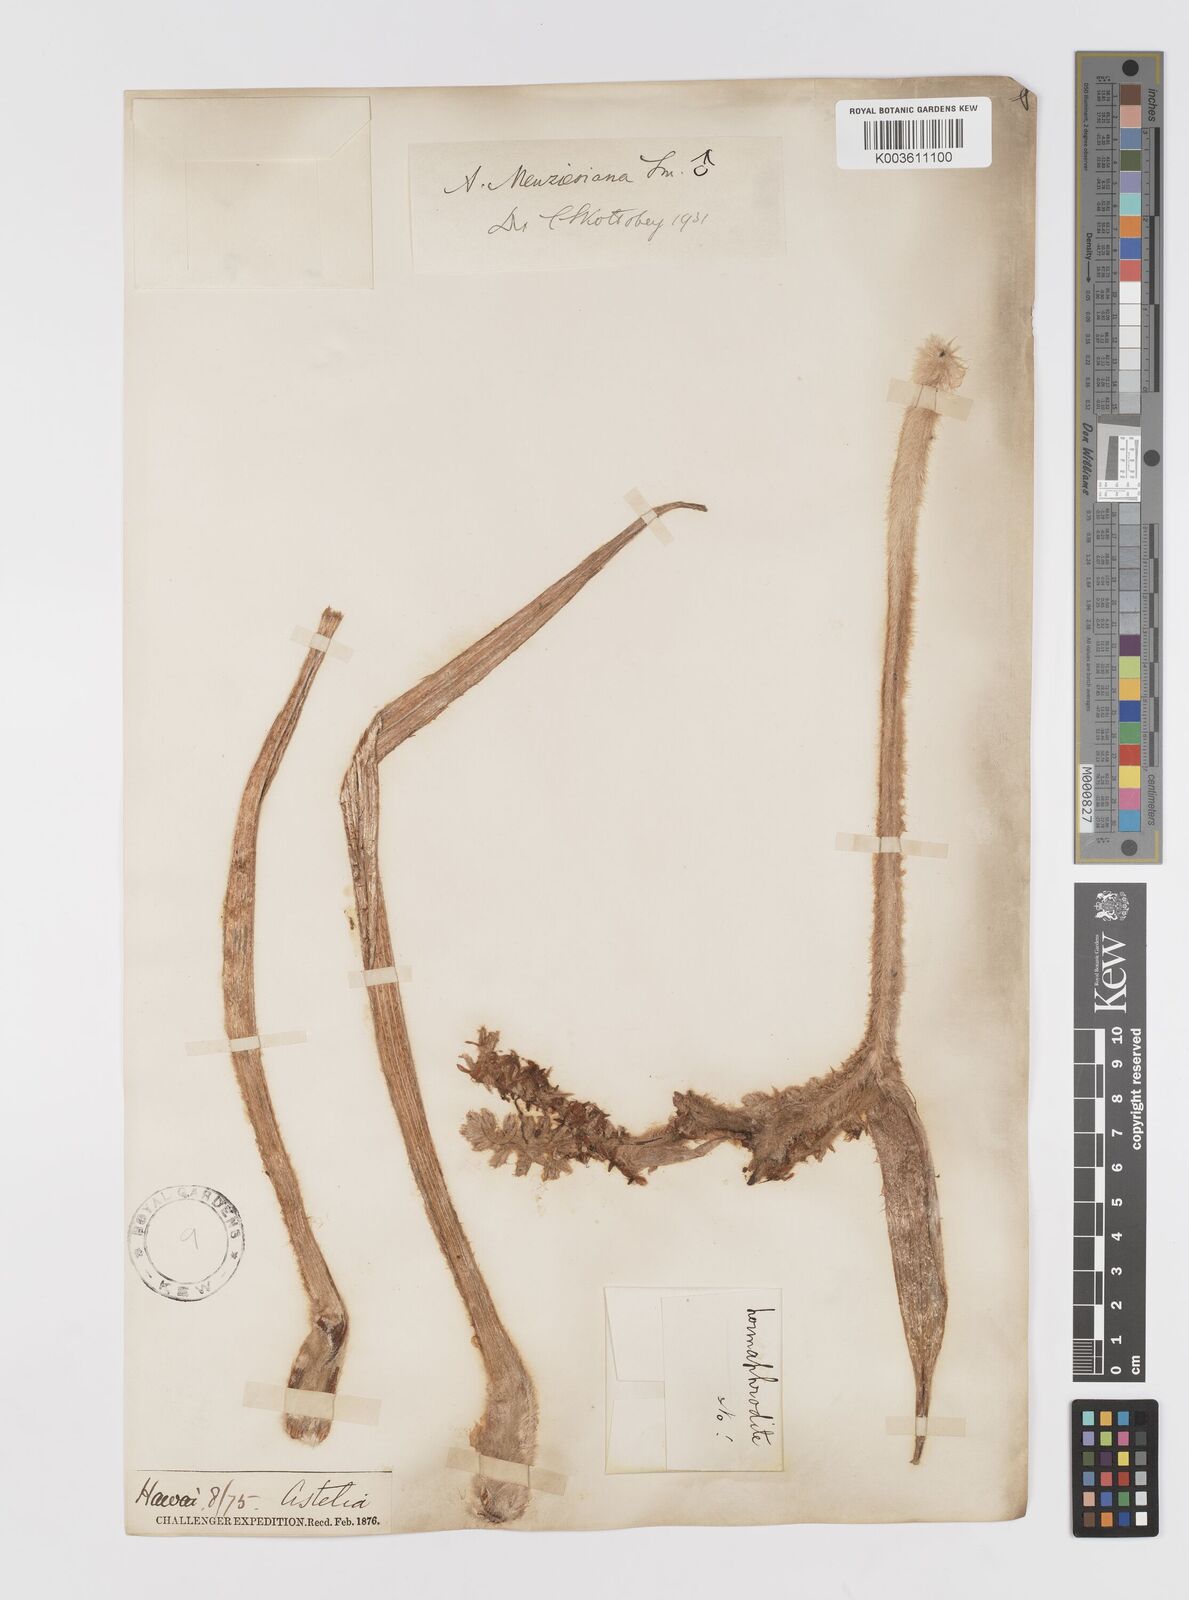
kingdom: Plantae
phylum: Tracheophyta
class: Liliopsida
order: Asparagales
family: Asteliaceae
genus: Astelia
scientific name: Astelia menziesiana
